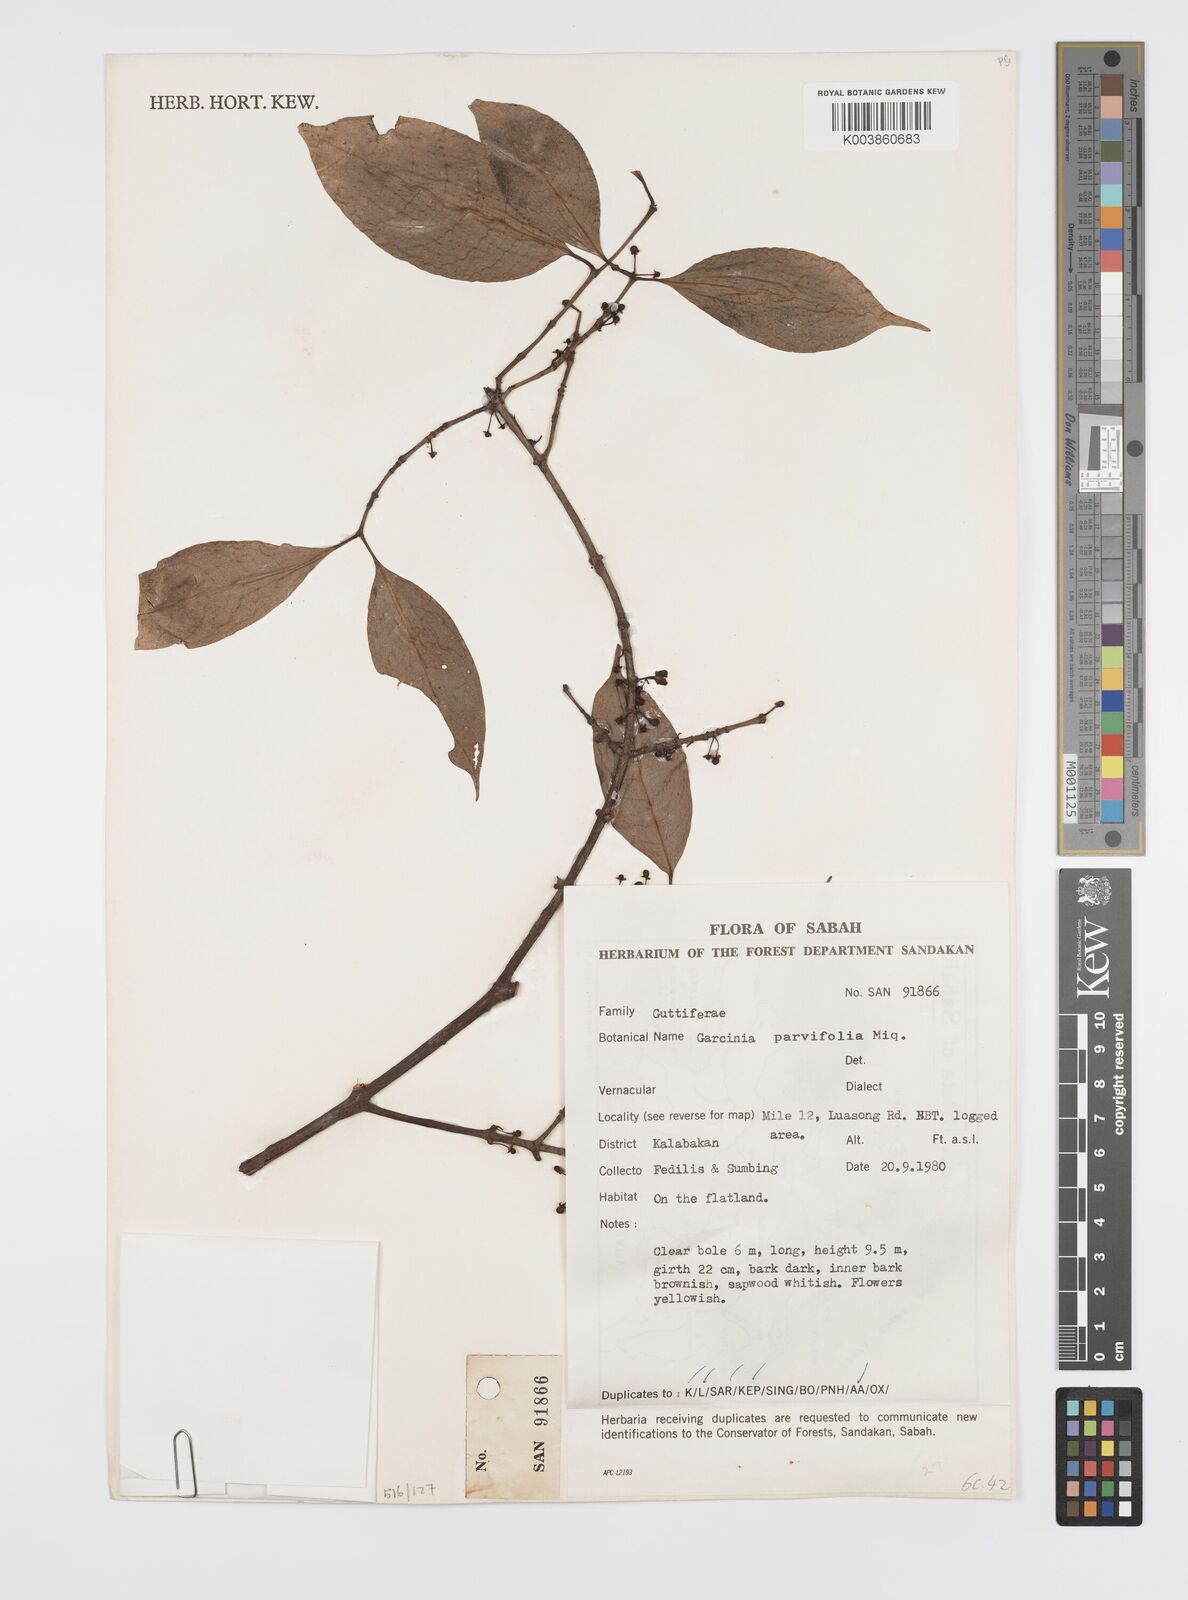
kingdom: Plantae
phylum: Tracheophyta
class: Magnoliopsida
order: Malpighiales
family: Clusiaceae
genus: Garcinia
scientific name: Garcinia parvifolia
